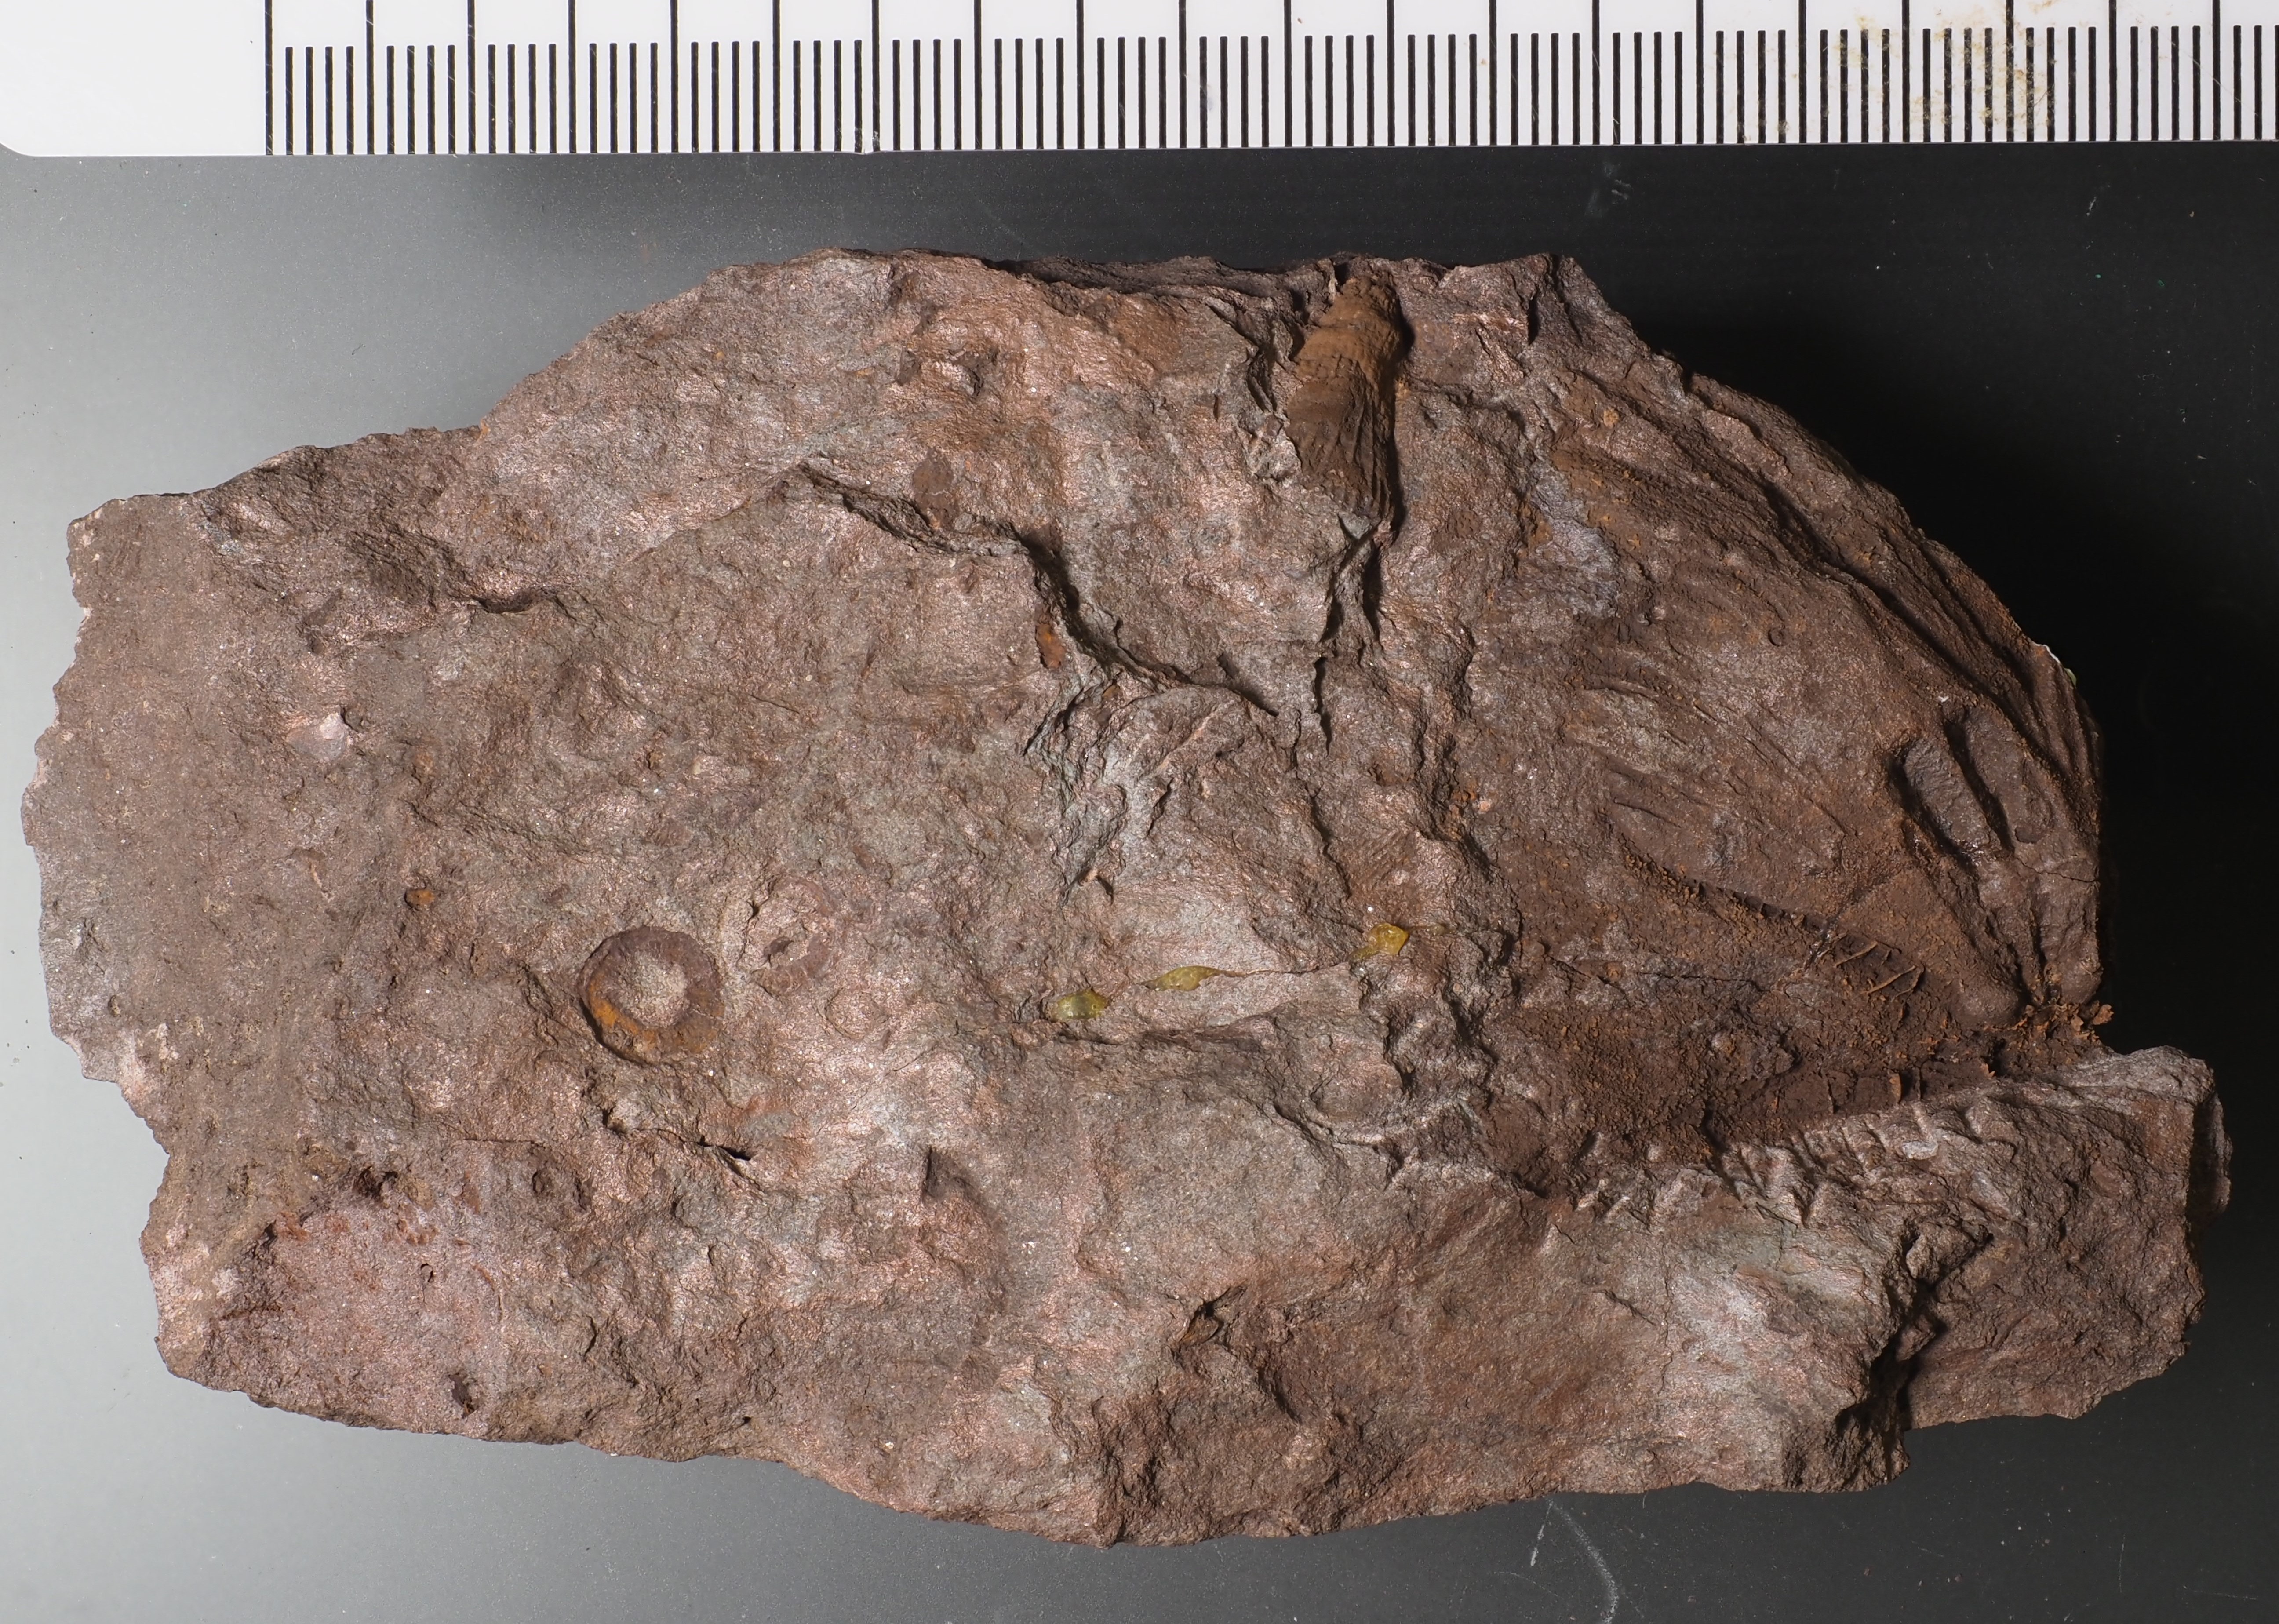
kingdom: Animalia
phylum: Brachiopoda
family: Strophomenidae
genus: Gigastropheodonta
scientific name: Gigastropheodonta
